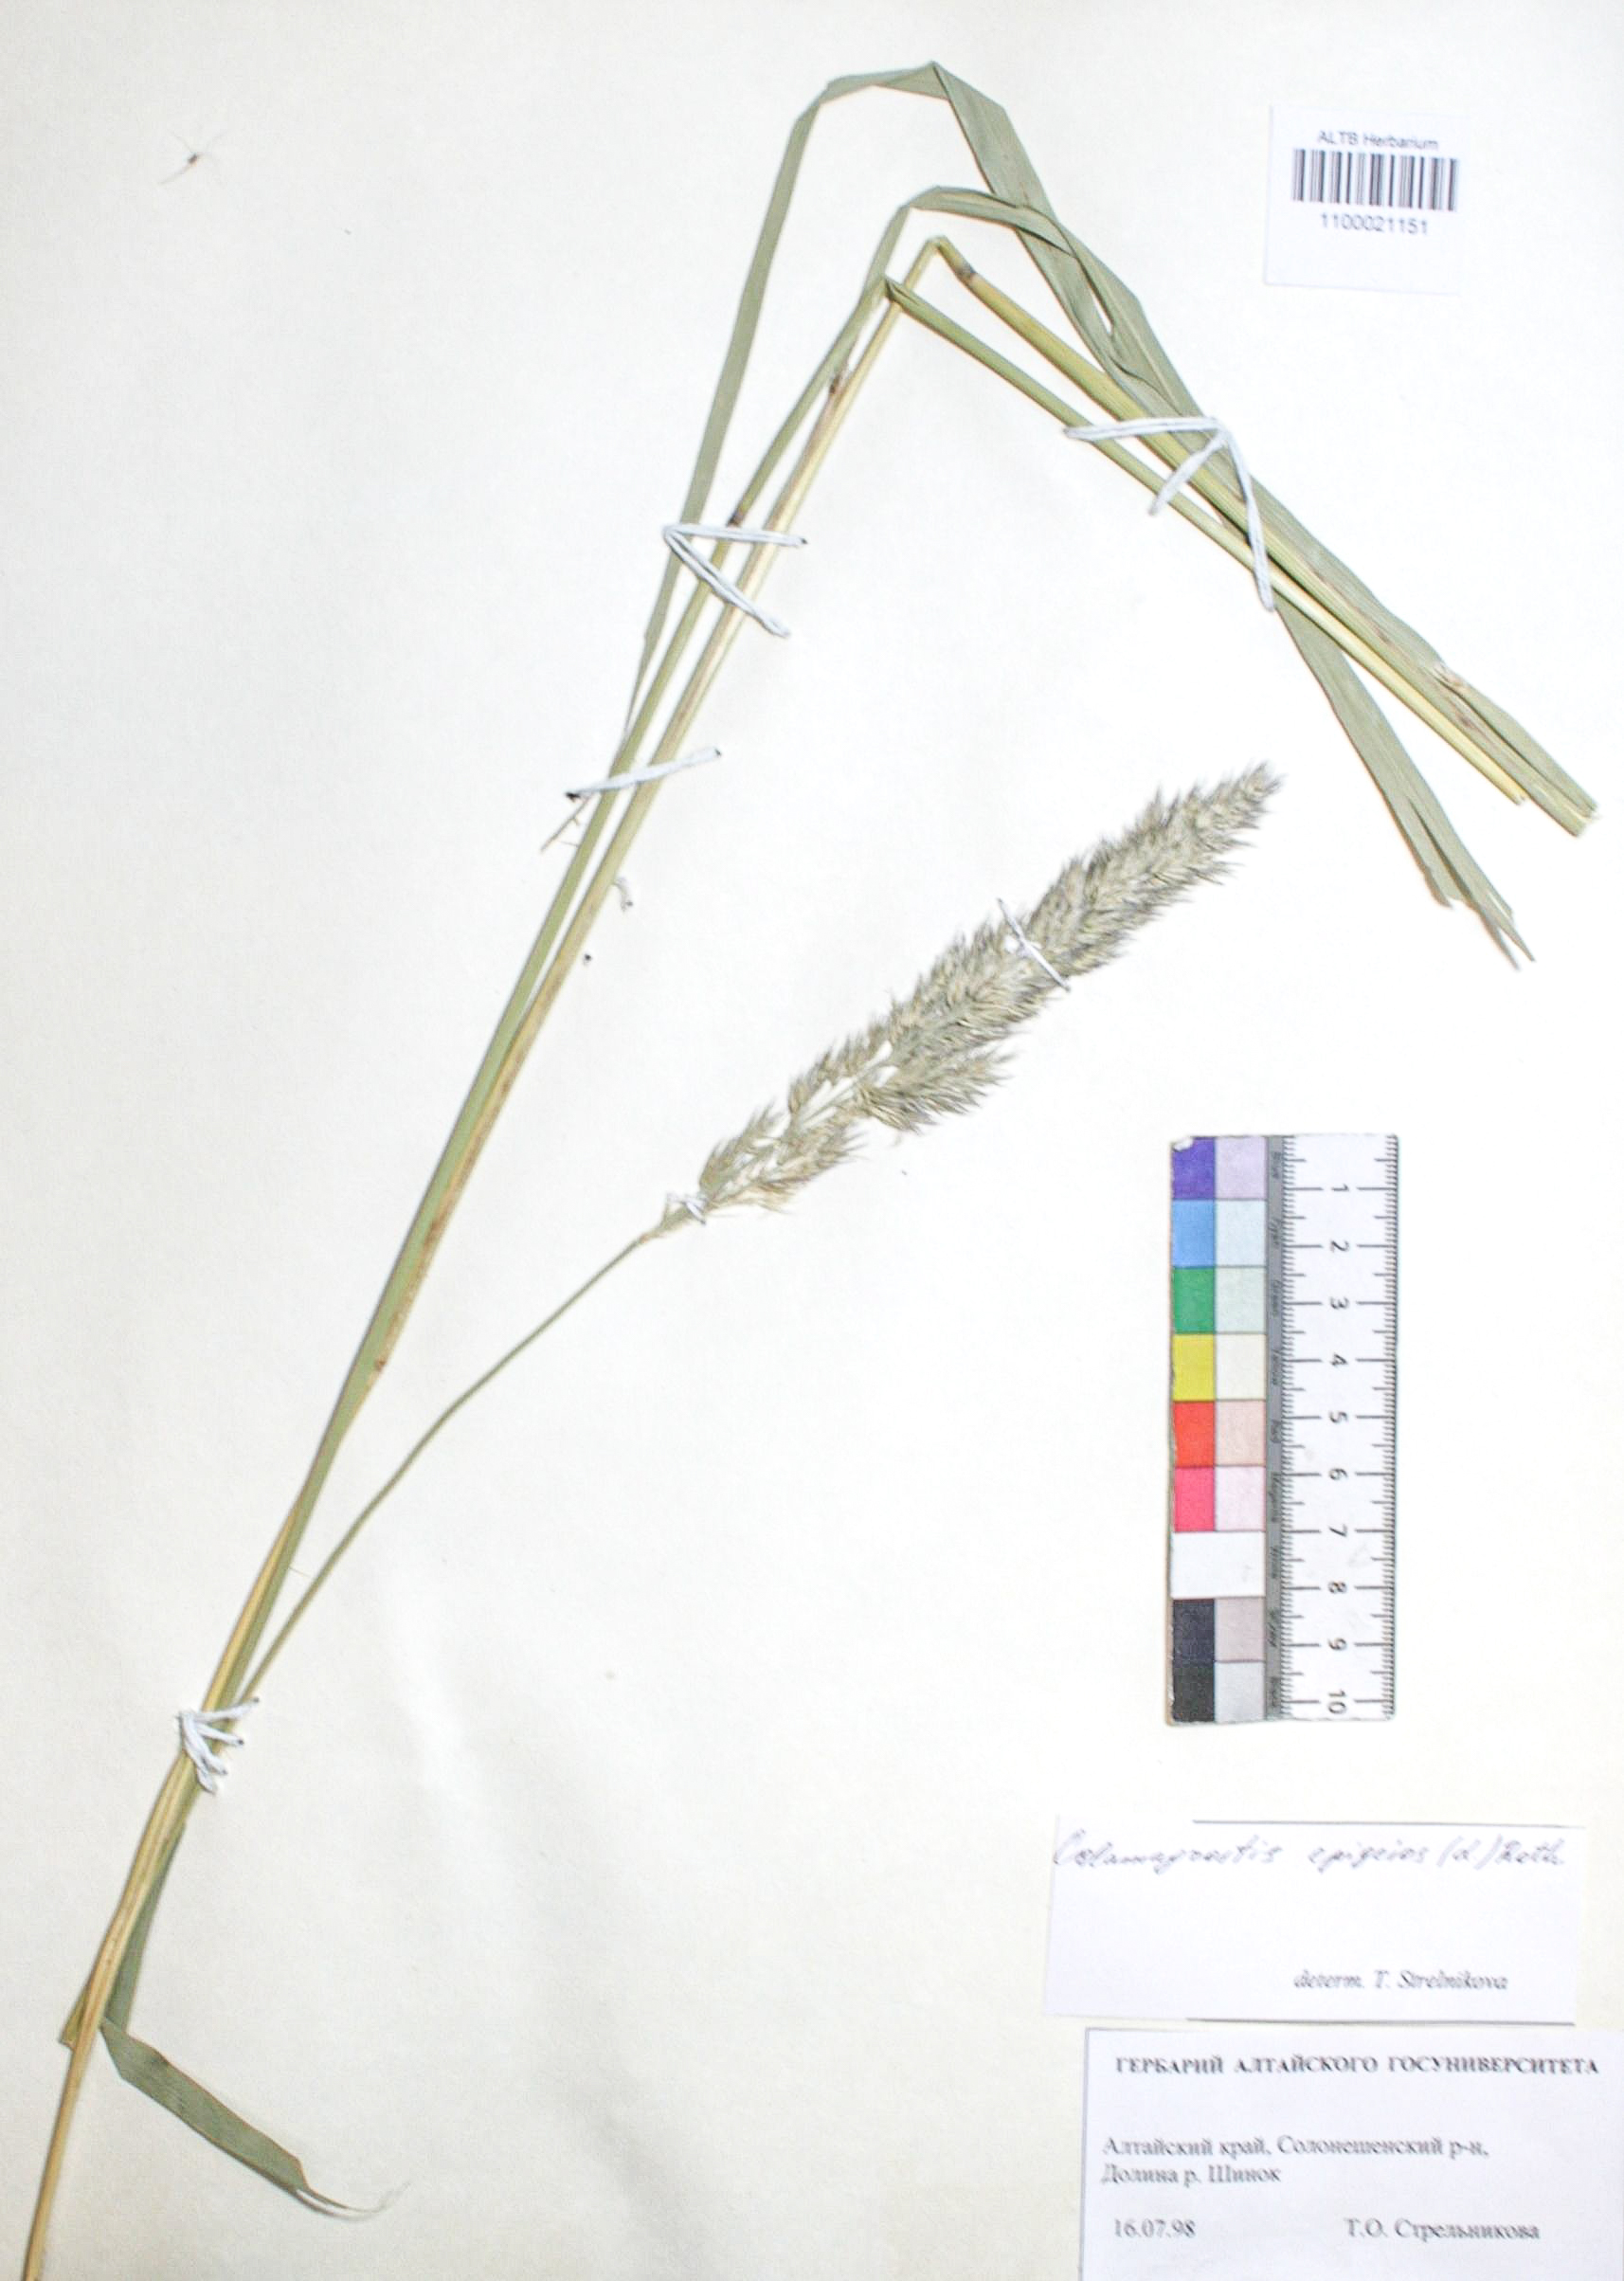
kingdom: Plantae
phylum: Tracheophyta
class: Liliopsida
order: Poales
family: Poaceae
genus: Calamagrostis
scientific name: Calamagrostis epigejos
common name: Wood small-reed
